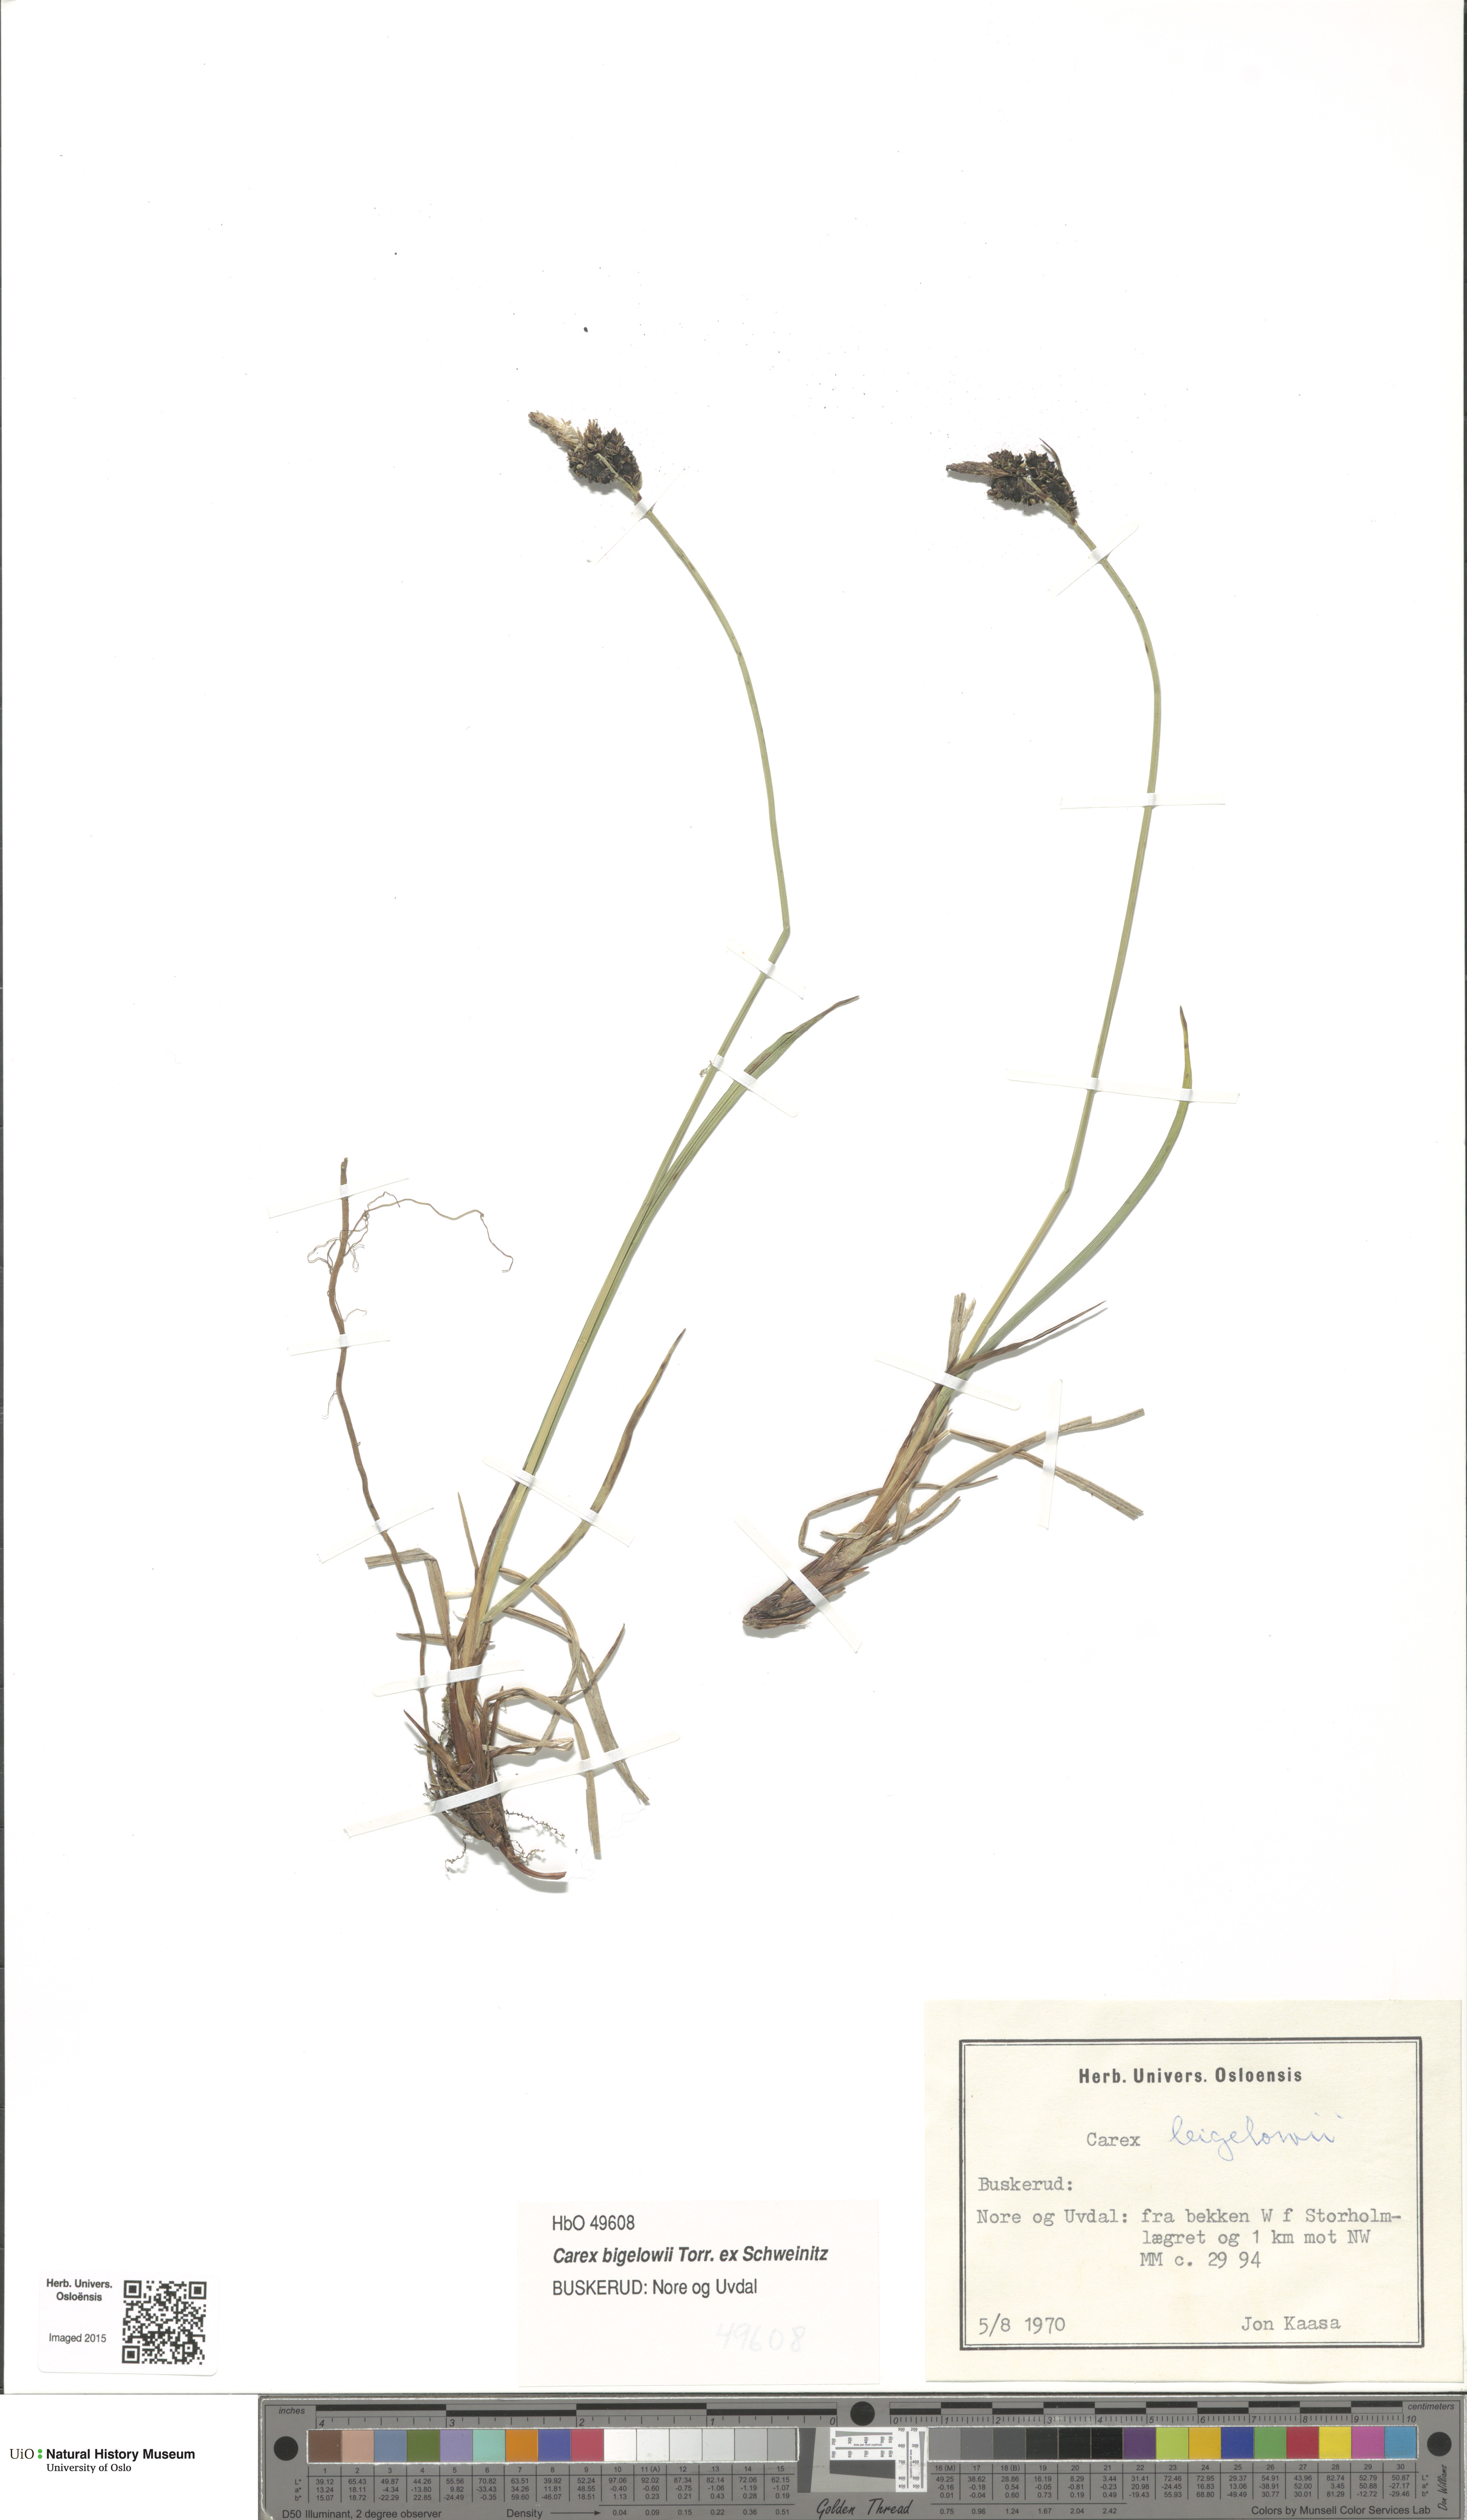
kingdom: Plantae
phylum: Tracheophyta
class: Liliopsida
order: Poales
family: Cyperaceae
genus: Carex
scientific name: Carex bigelowii
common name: Stiff sedge
